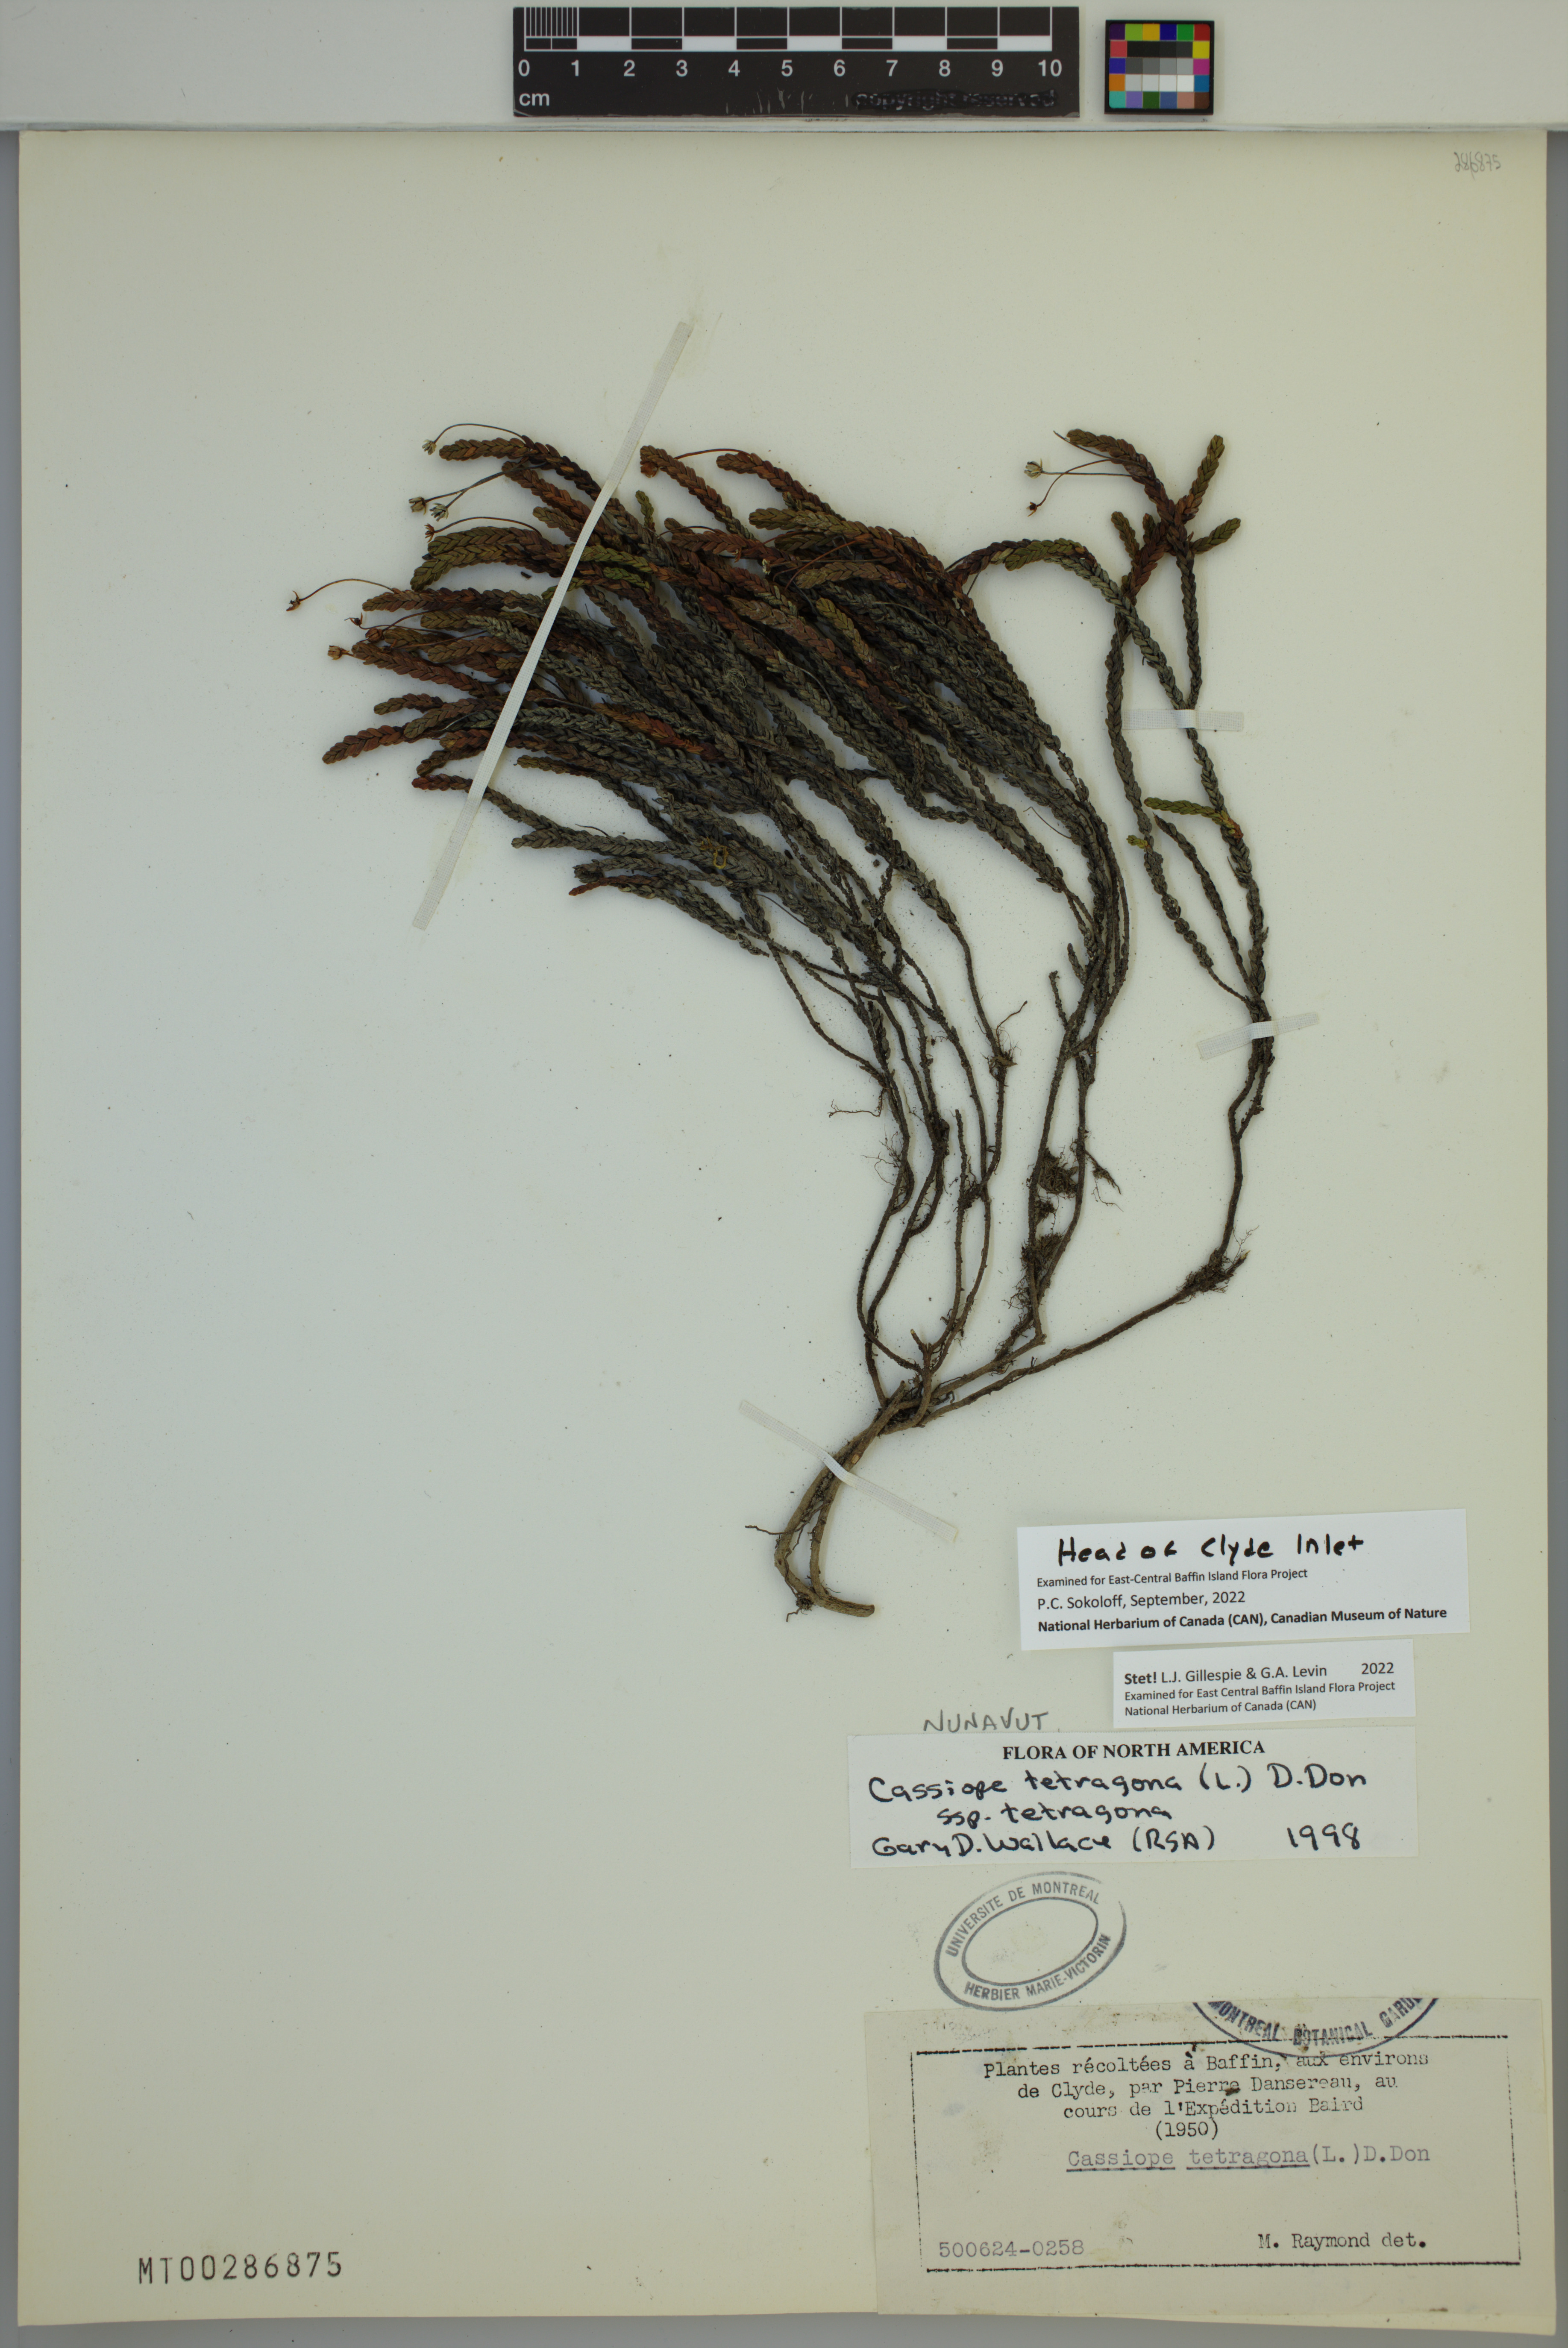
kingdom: Plantae
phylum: Tracheophyta
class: Magnoliopsida
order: Ericales
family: Ericaceae
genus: Cassiope
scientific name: Cassiope tetragona
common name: Arctic bell heather
